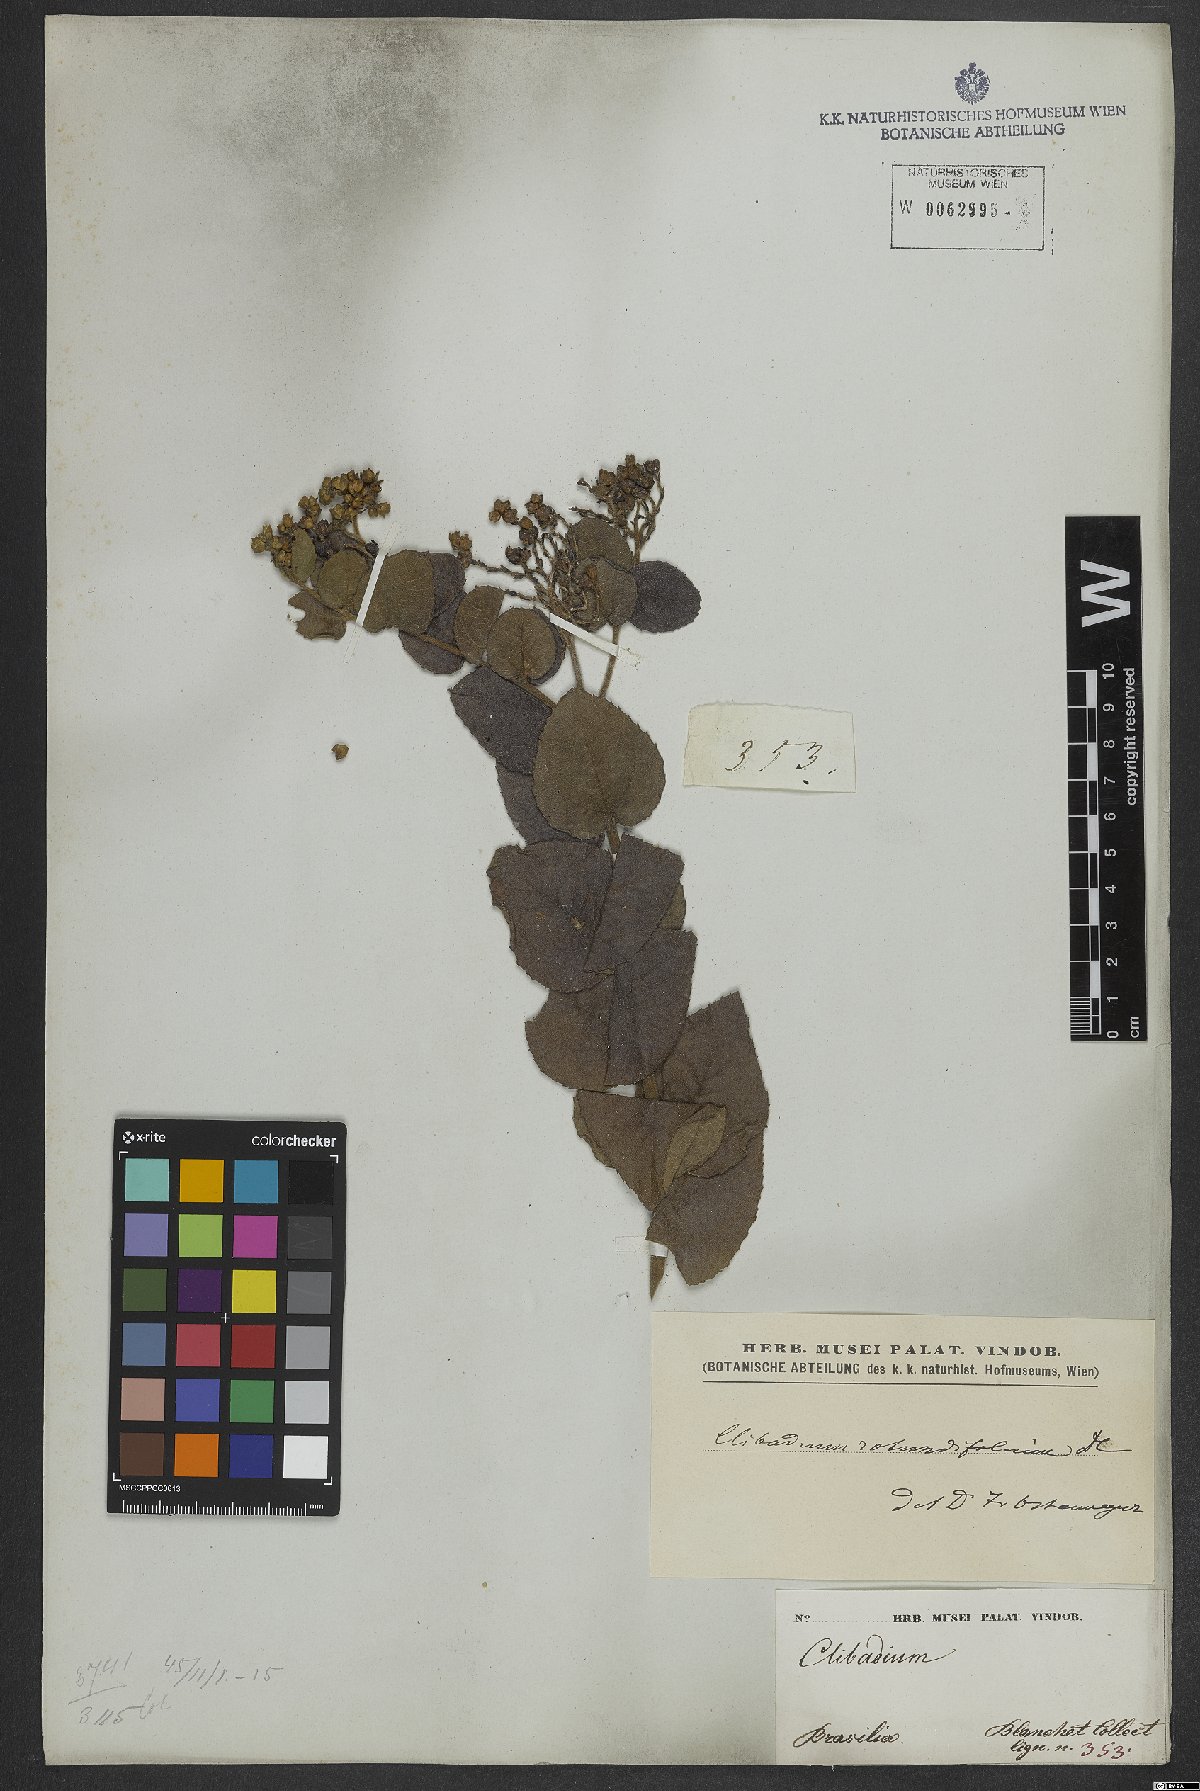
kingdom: Plantae
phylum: Tracheophyta
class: Magnoliopsida
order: Asterales
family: Asteraceae
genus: Clibadium
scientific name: Clibadium armanii
